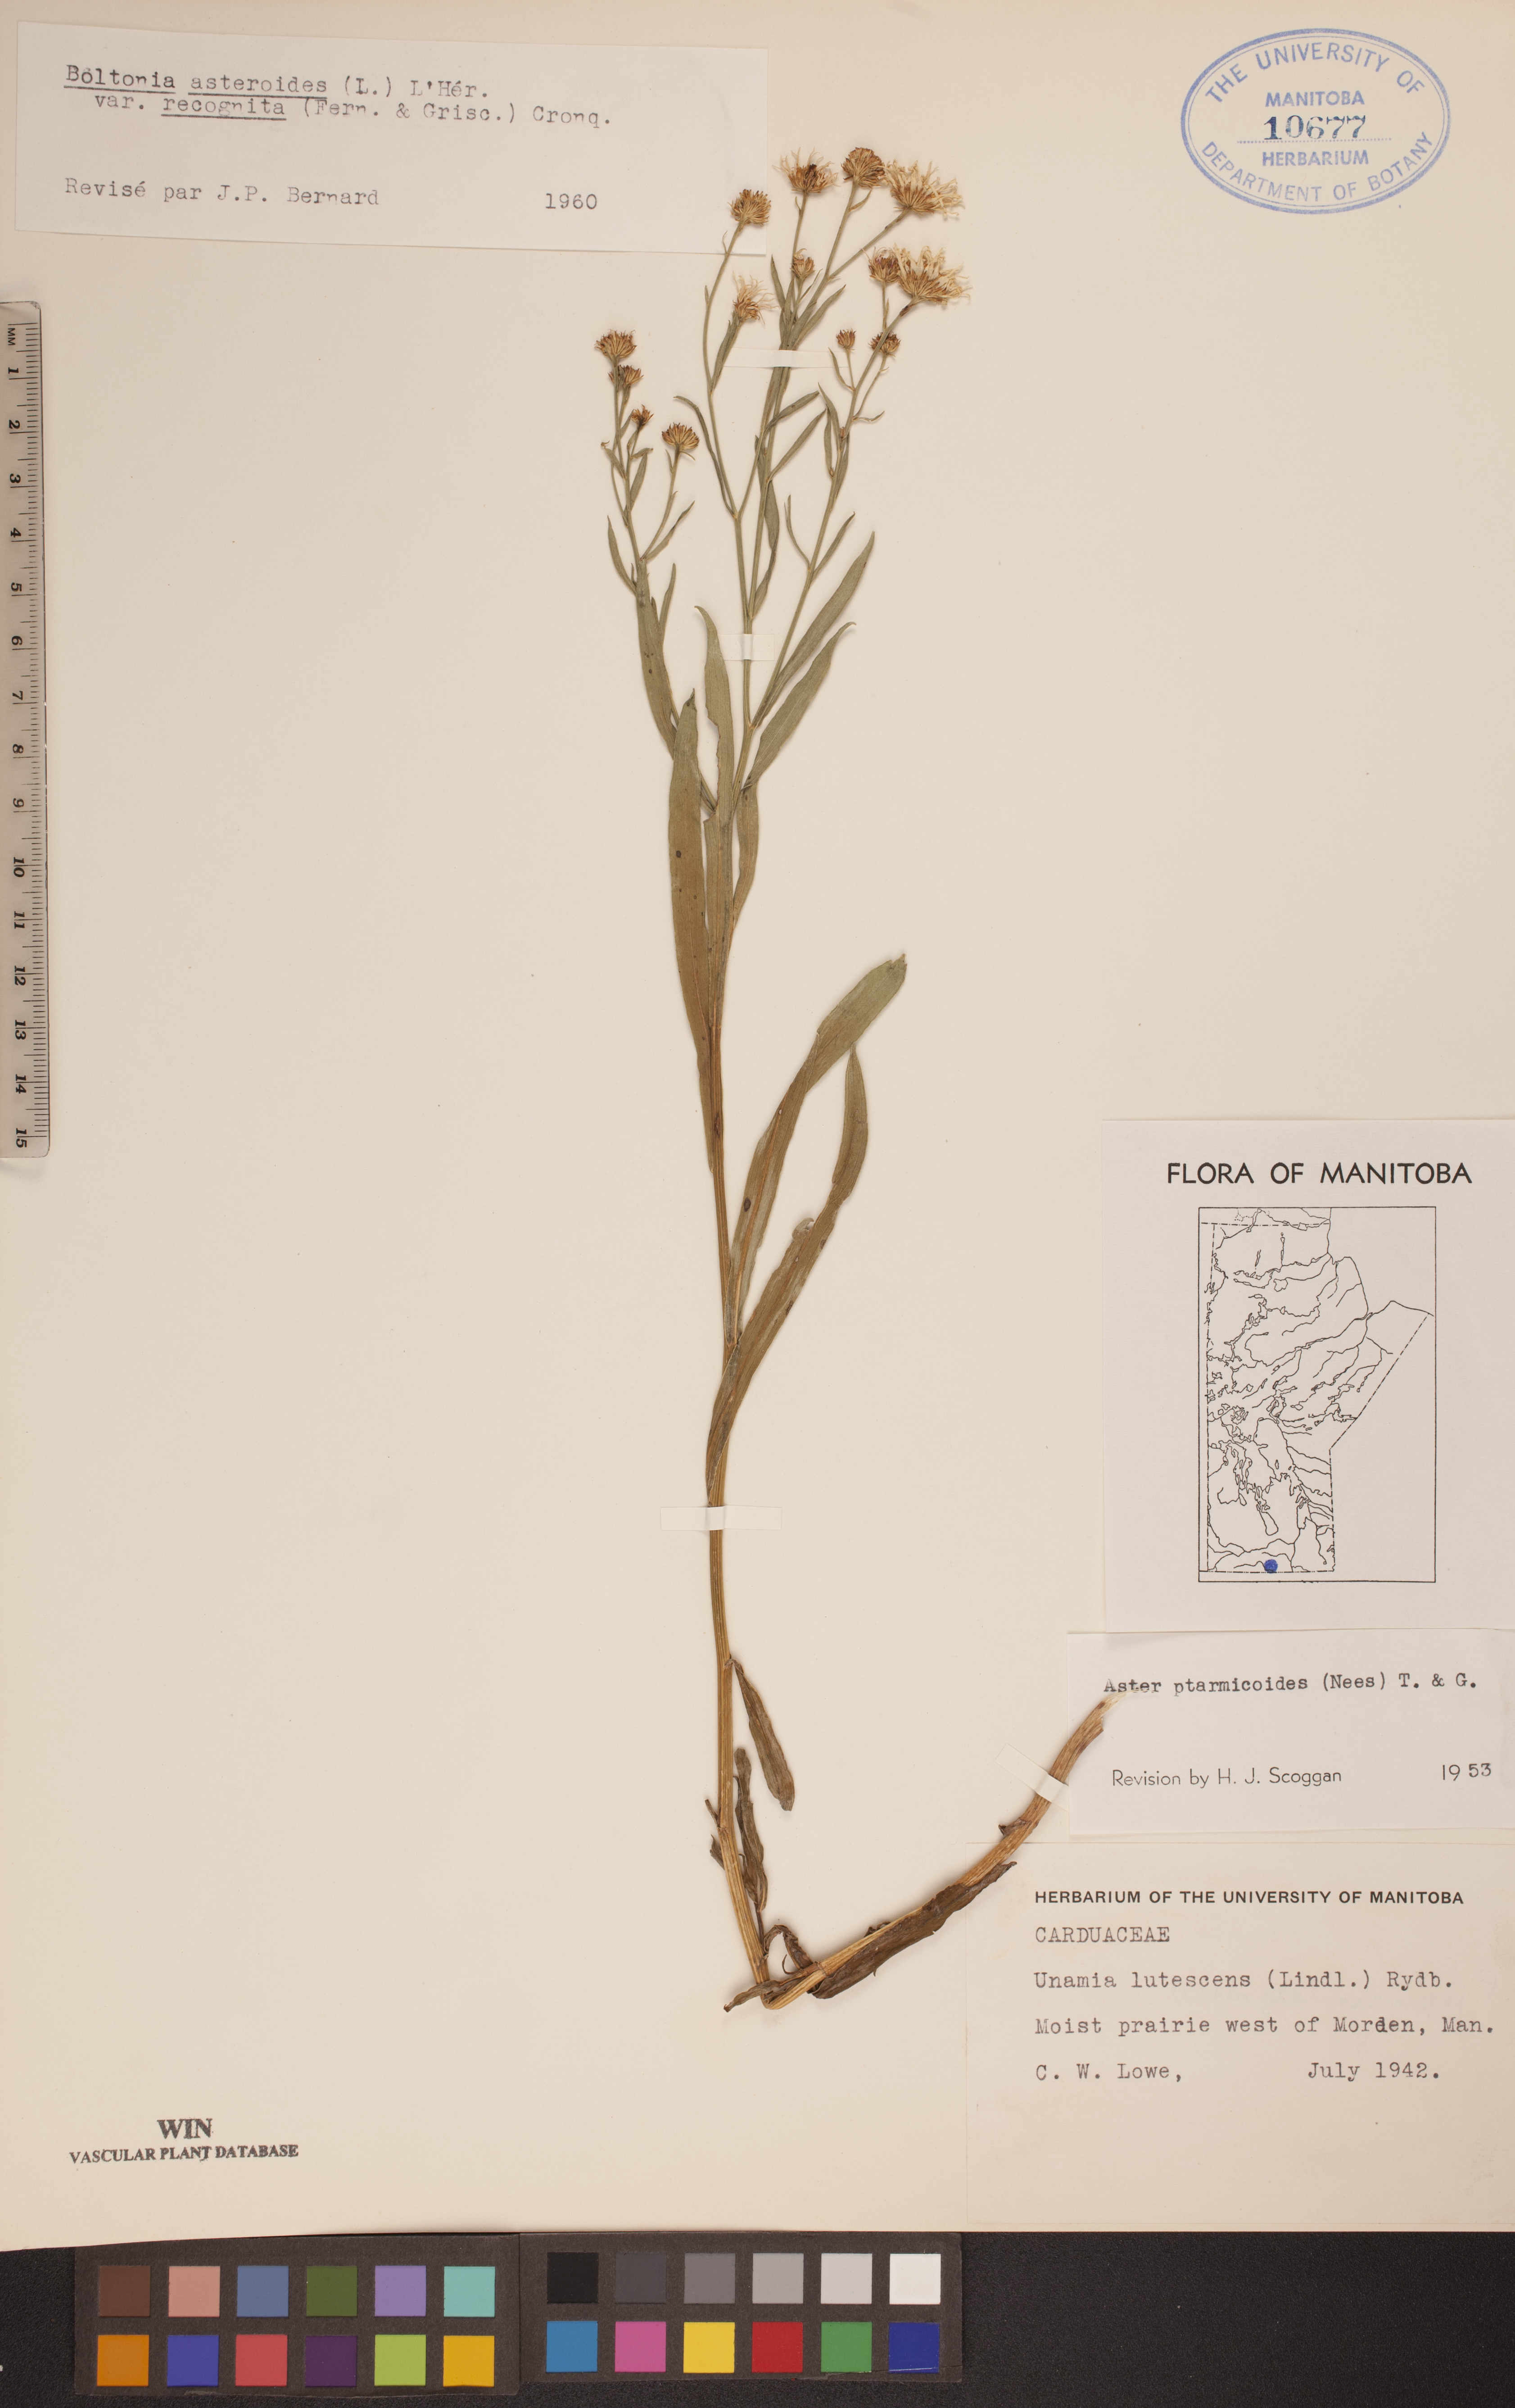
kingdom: Plantae
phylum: Tracheophyta
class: Magnoliopsida
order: Asterales
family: Asteraceae
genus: Boltonia
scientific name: Boltonia asteroides
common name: False chamomile
